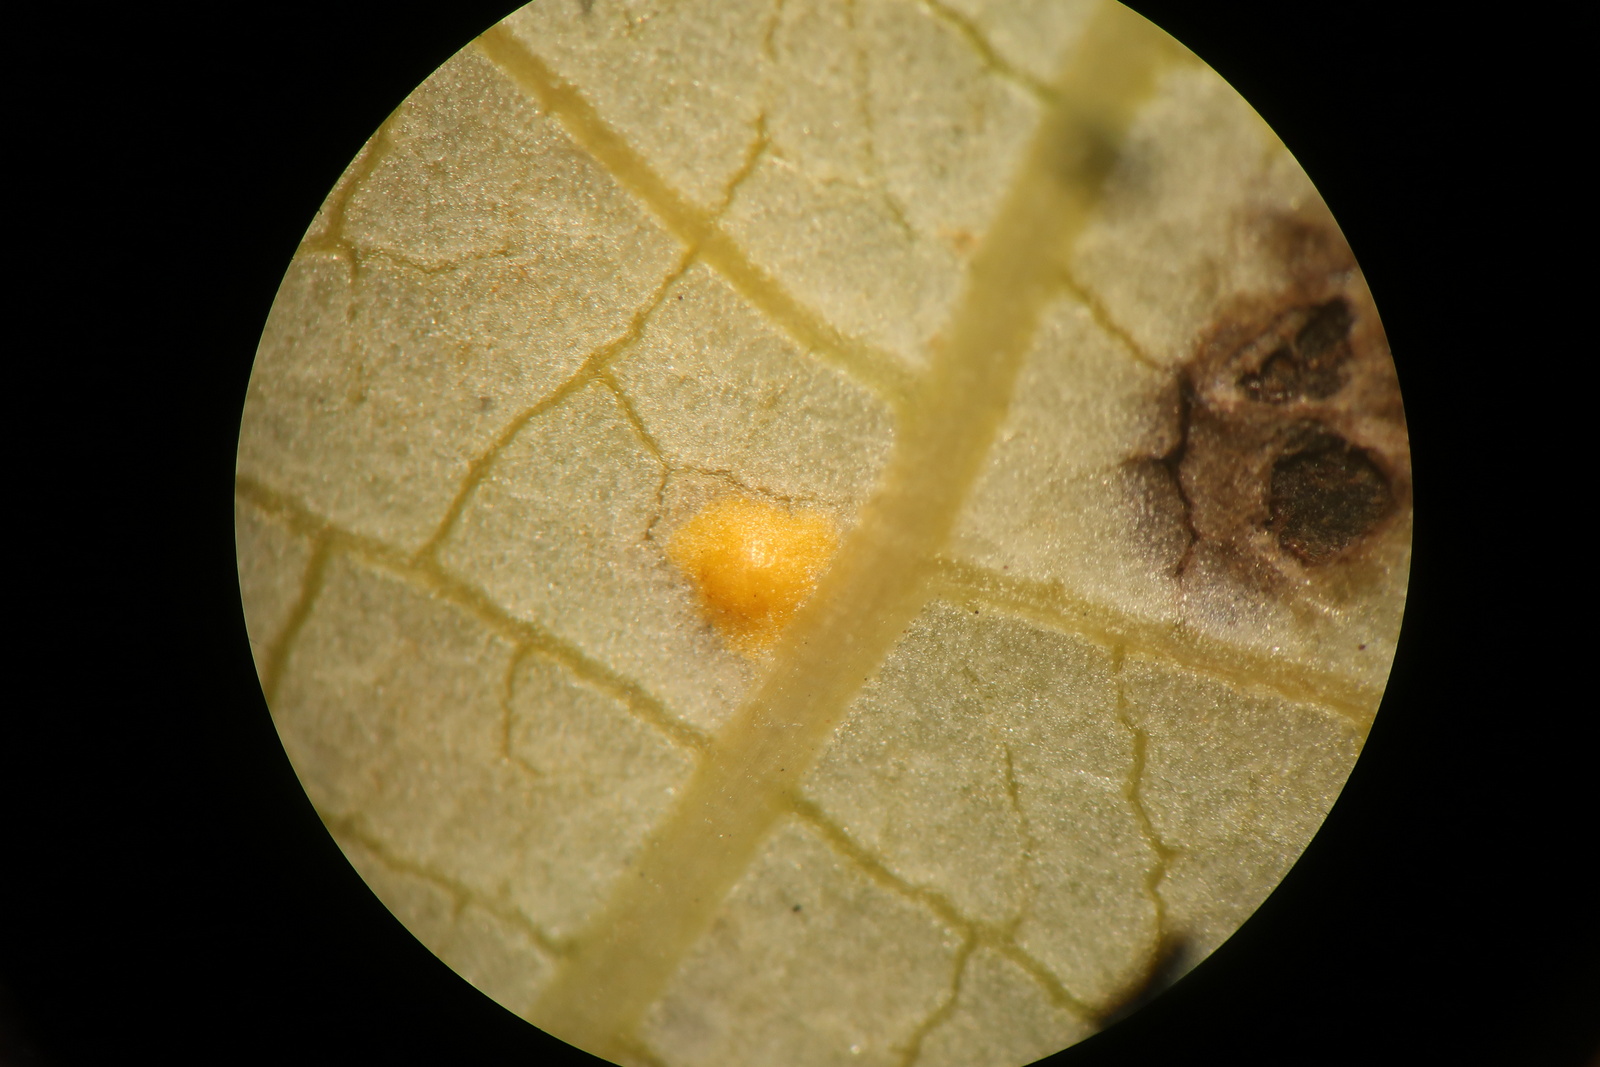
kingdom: Fungi
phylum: Basidiomycota
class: Pucciniomycetes
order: Pucciniales
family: Melampsoraceae
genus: Melampsora
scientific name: Melampsora
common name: skorperust
